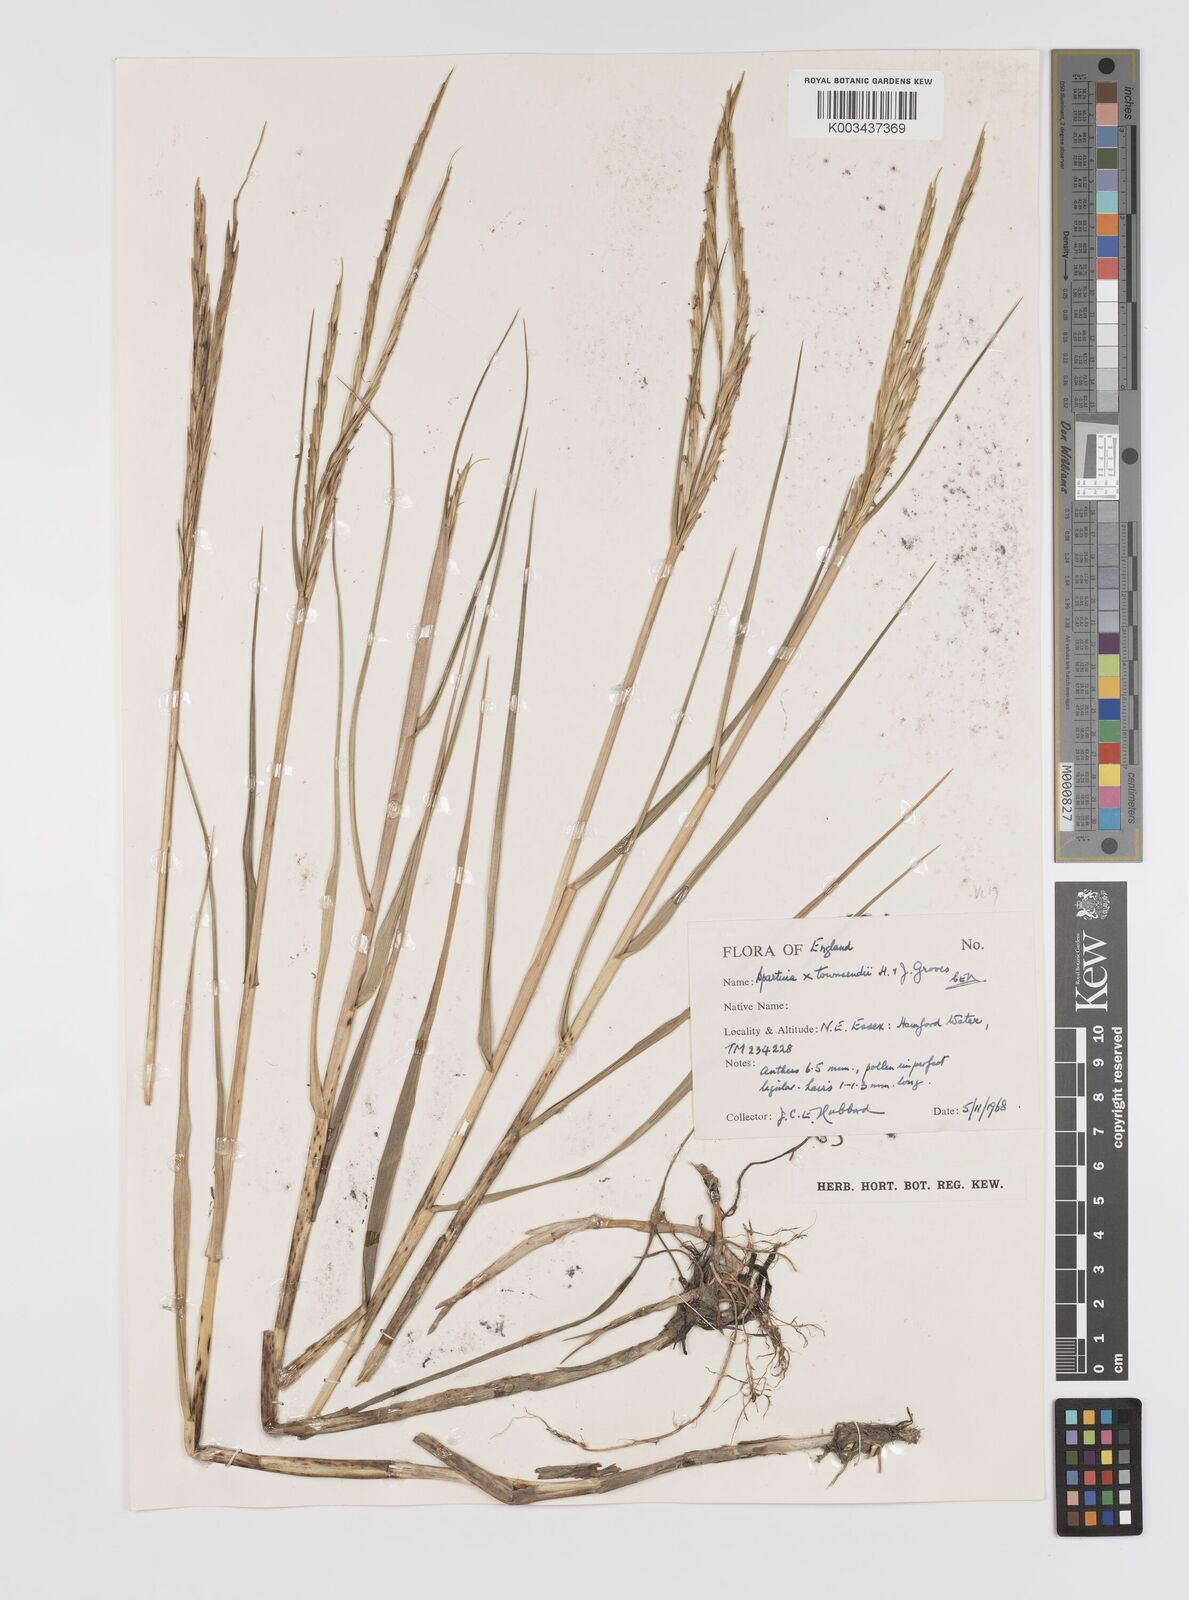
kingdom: Plantae
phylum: Tracheophyta
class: Liliopsida
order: Poales
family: Poaceae
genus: Sporobolus
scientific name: Sporobolus townsendii
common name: Townsend's cordgrass
